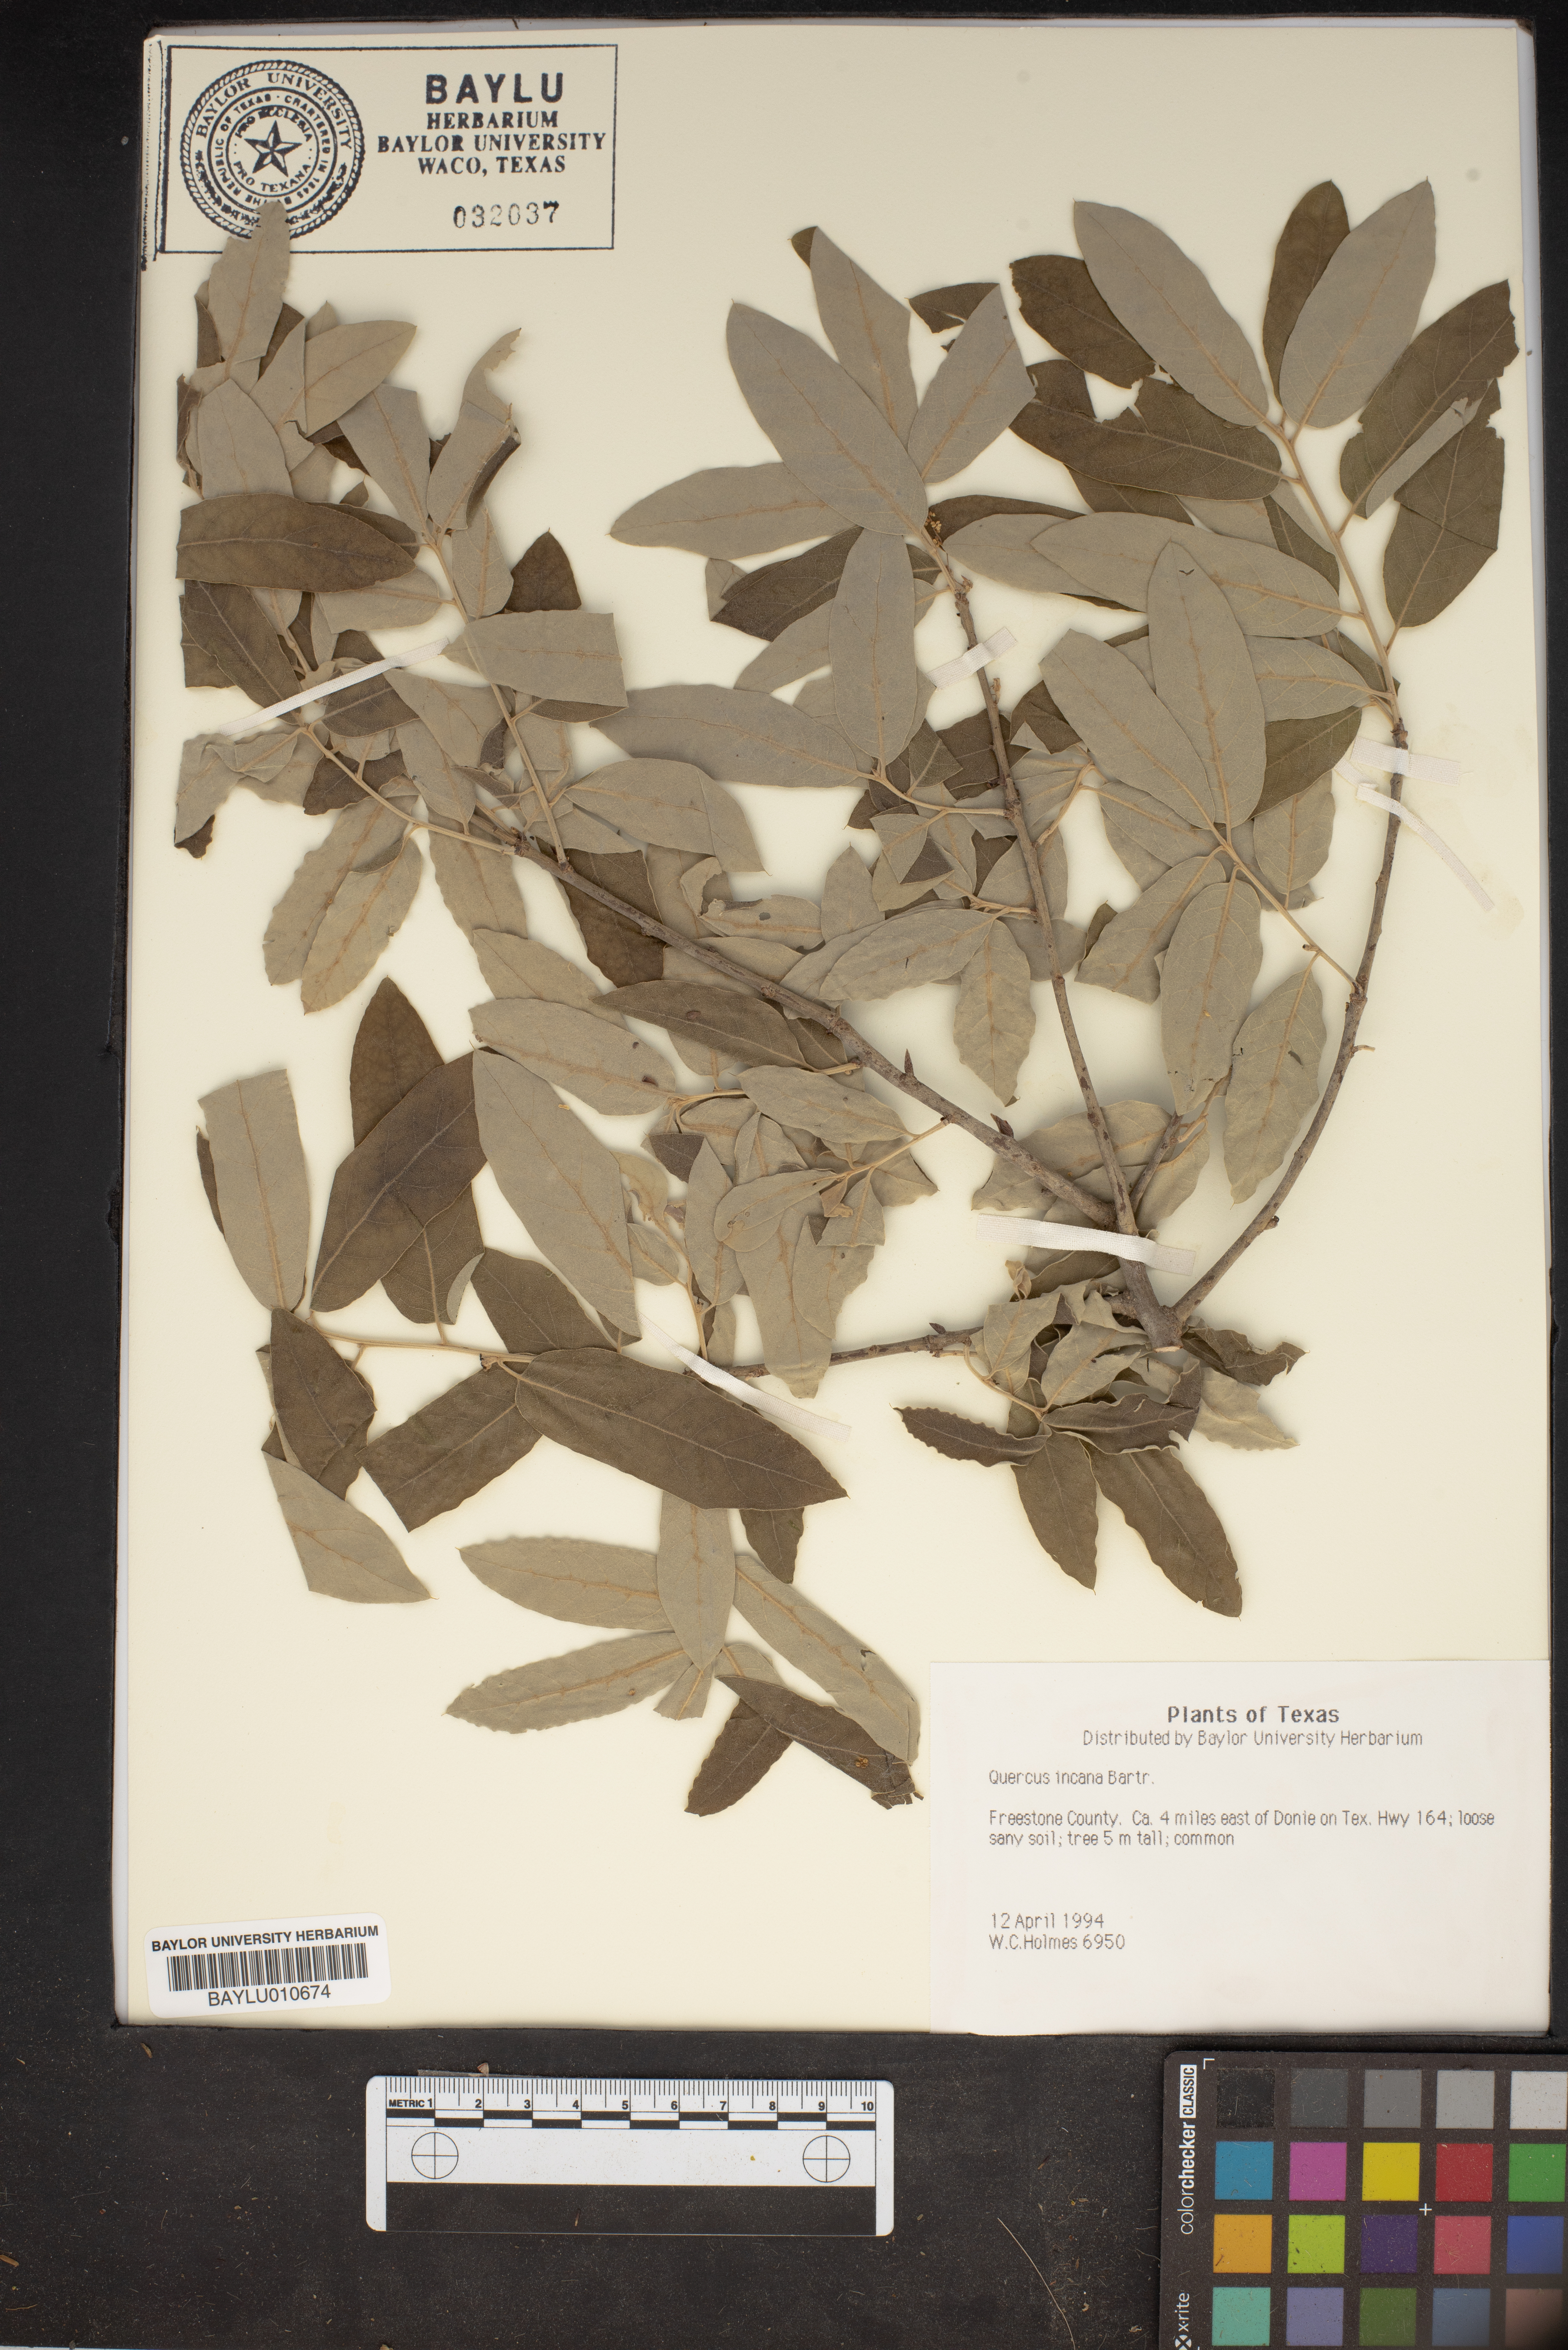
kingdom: Plantae
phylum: Tracheophyta
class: Magnoliopsida
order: Fagales
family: Fagaceae
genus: Quercus
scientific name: Quercus incana
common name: Bluejack oak
